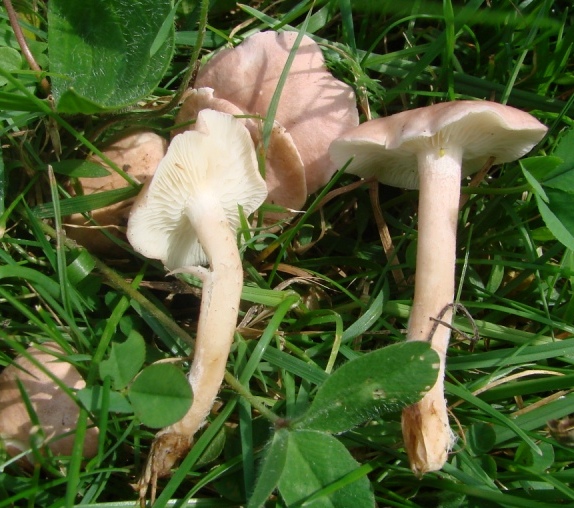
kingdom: Fungi
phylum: Basidiomycota
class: Agaricomycetes
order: Agaricales
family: Lyophyllaceae
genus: Calocybe
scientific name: Calocybe carnea
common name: rosa fagerhat
